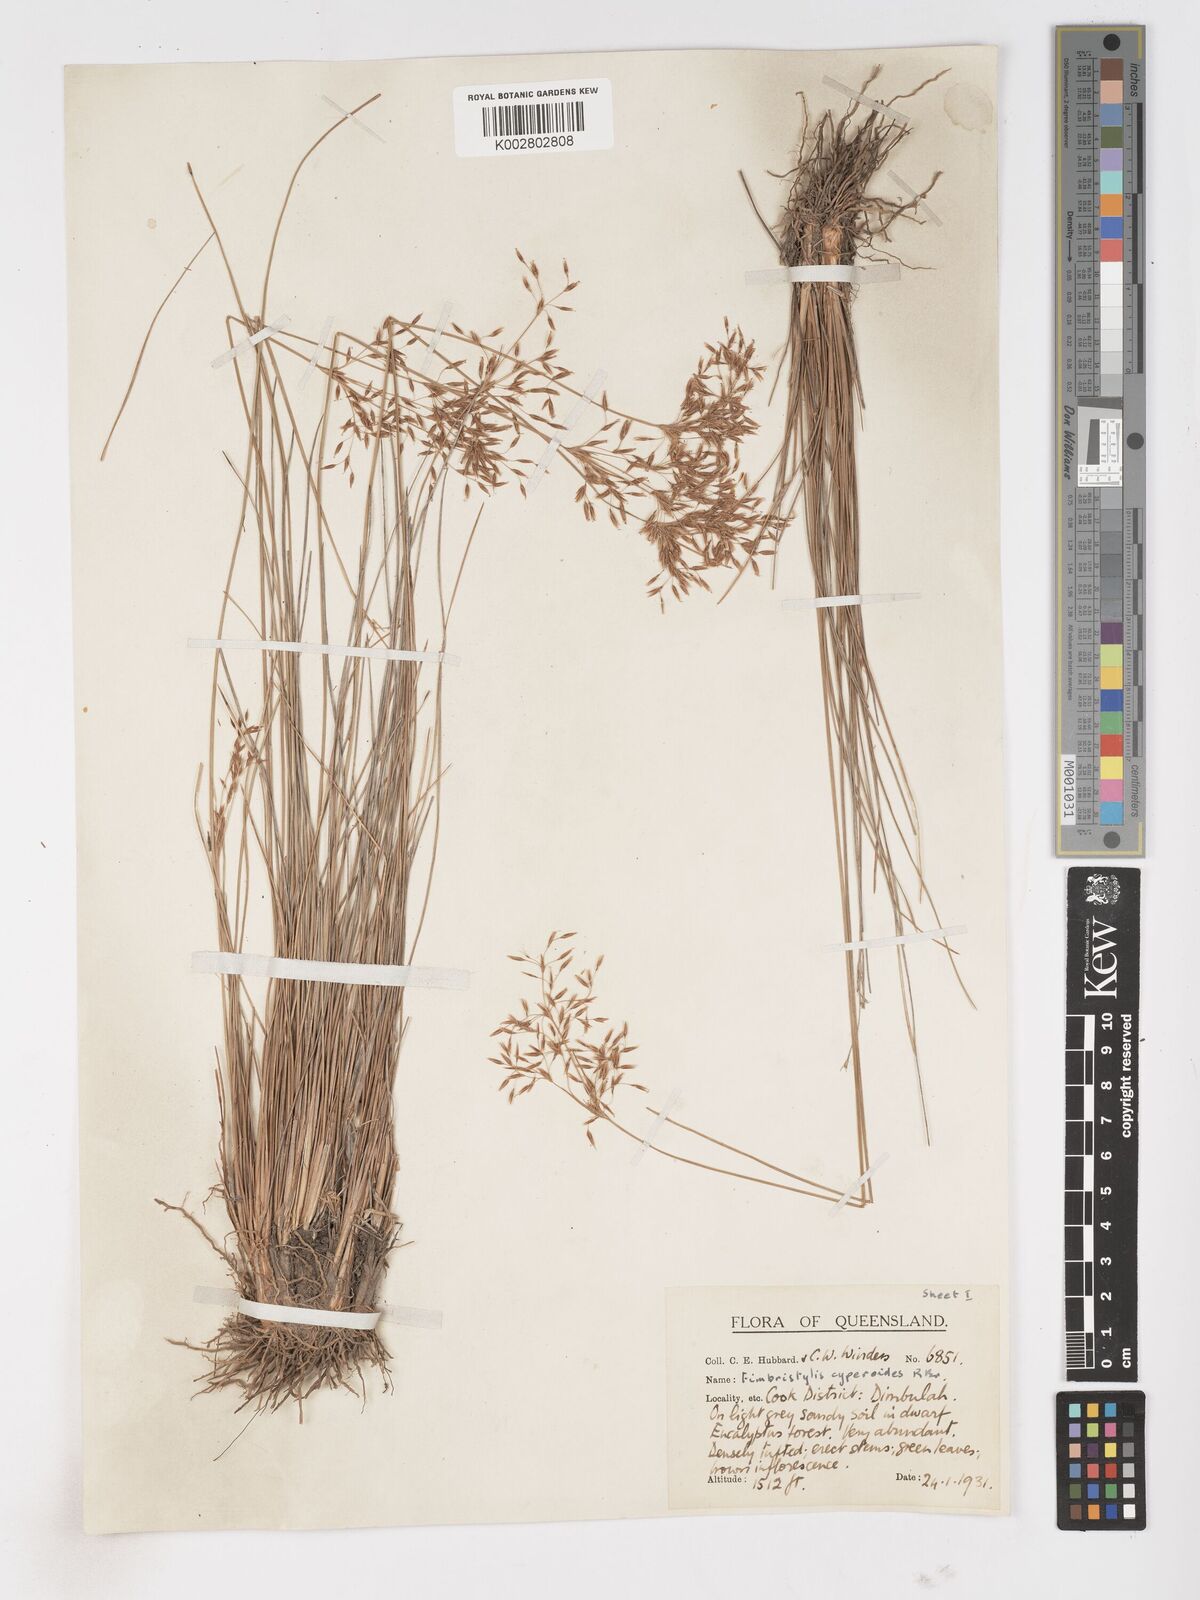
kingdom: Plantae
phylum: Tracheophyta
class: Liliopsida
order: Poales
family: Cyperaceae
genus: Fimbristylis
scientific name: Fimbristylis cinnamometorum
